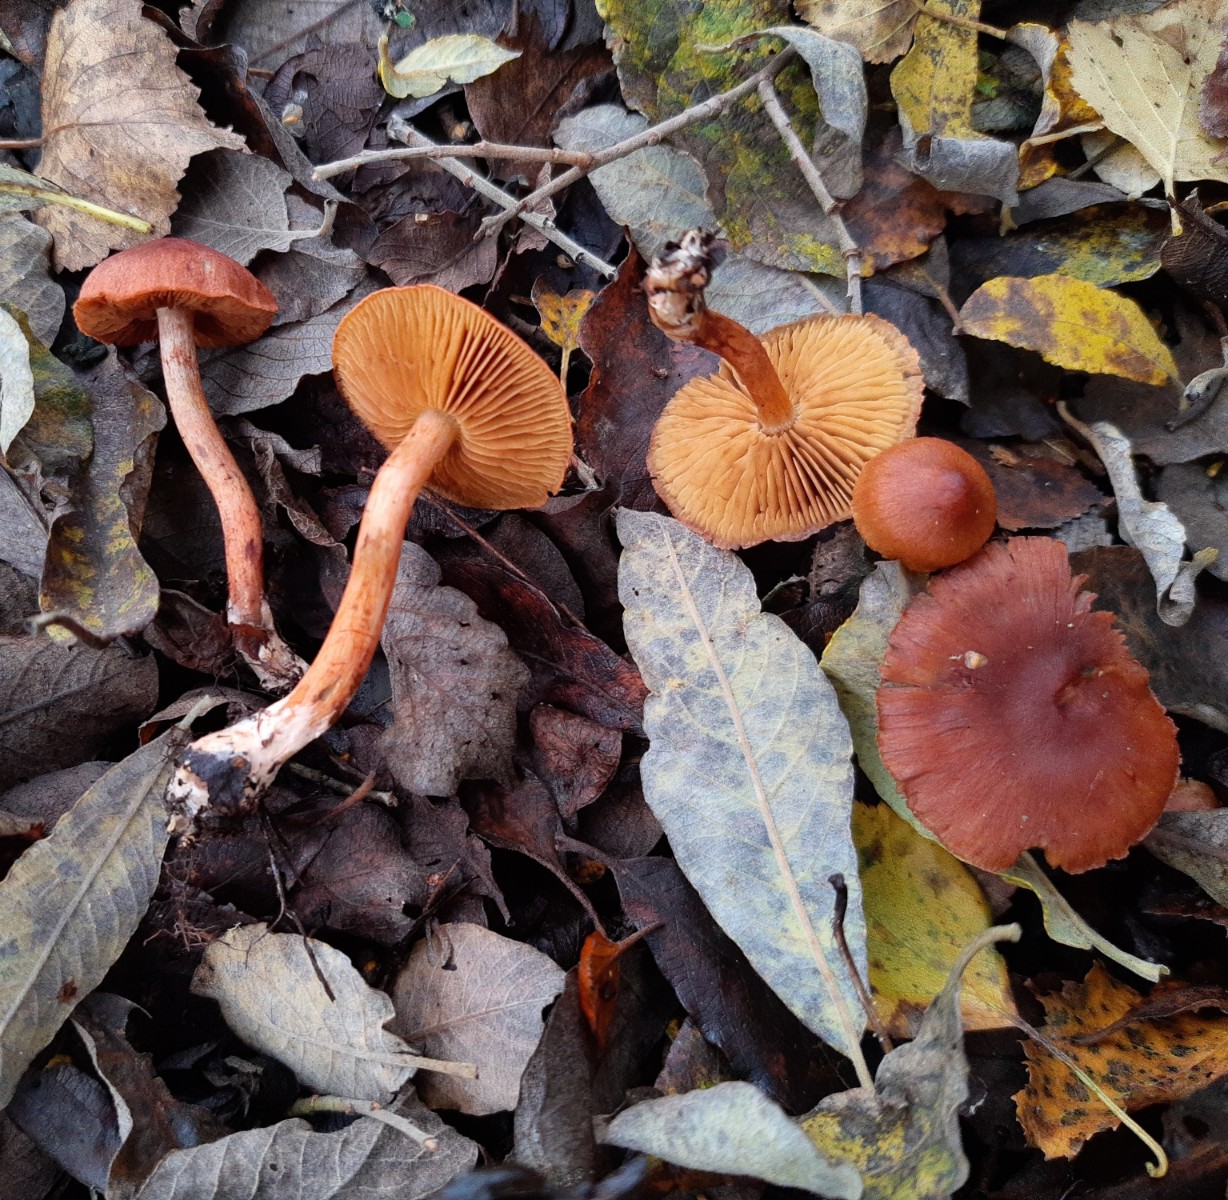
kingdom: Fungi
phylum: Basidiomycota
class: Agaricomycetes
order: Agaricales
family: Cortinariaceae
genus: Cortinarius
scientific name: Cortinarius uliginosus
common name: mose-slørhat
